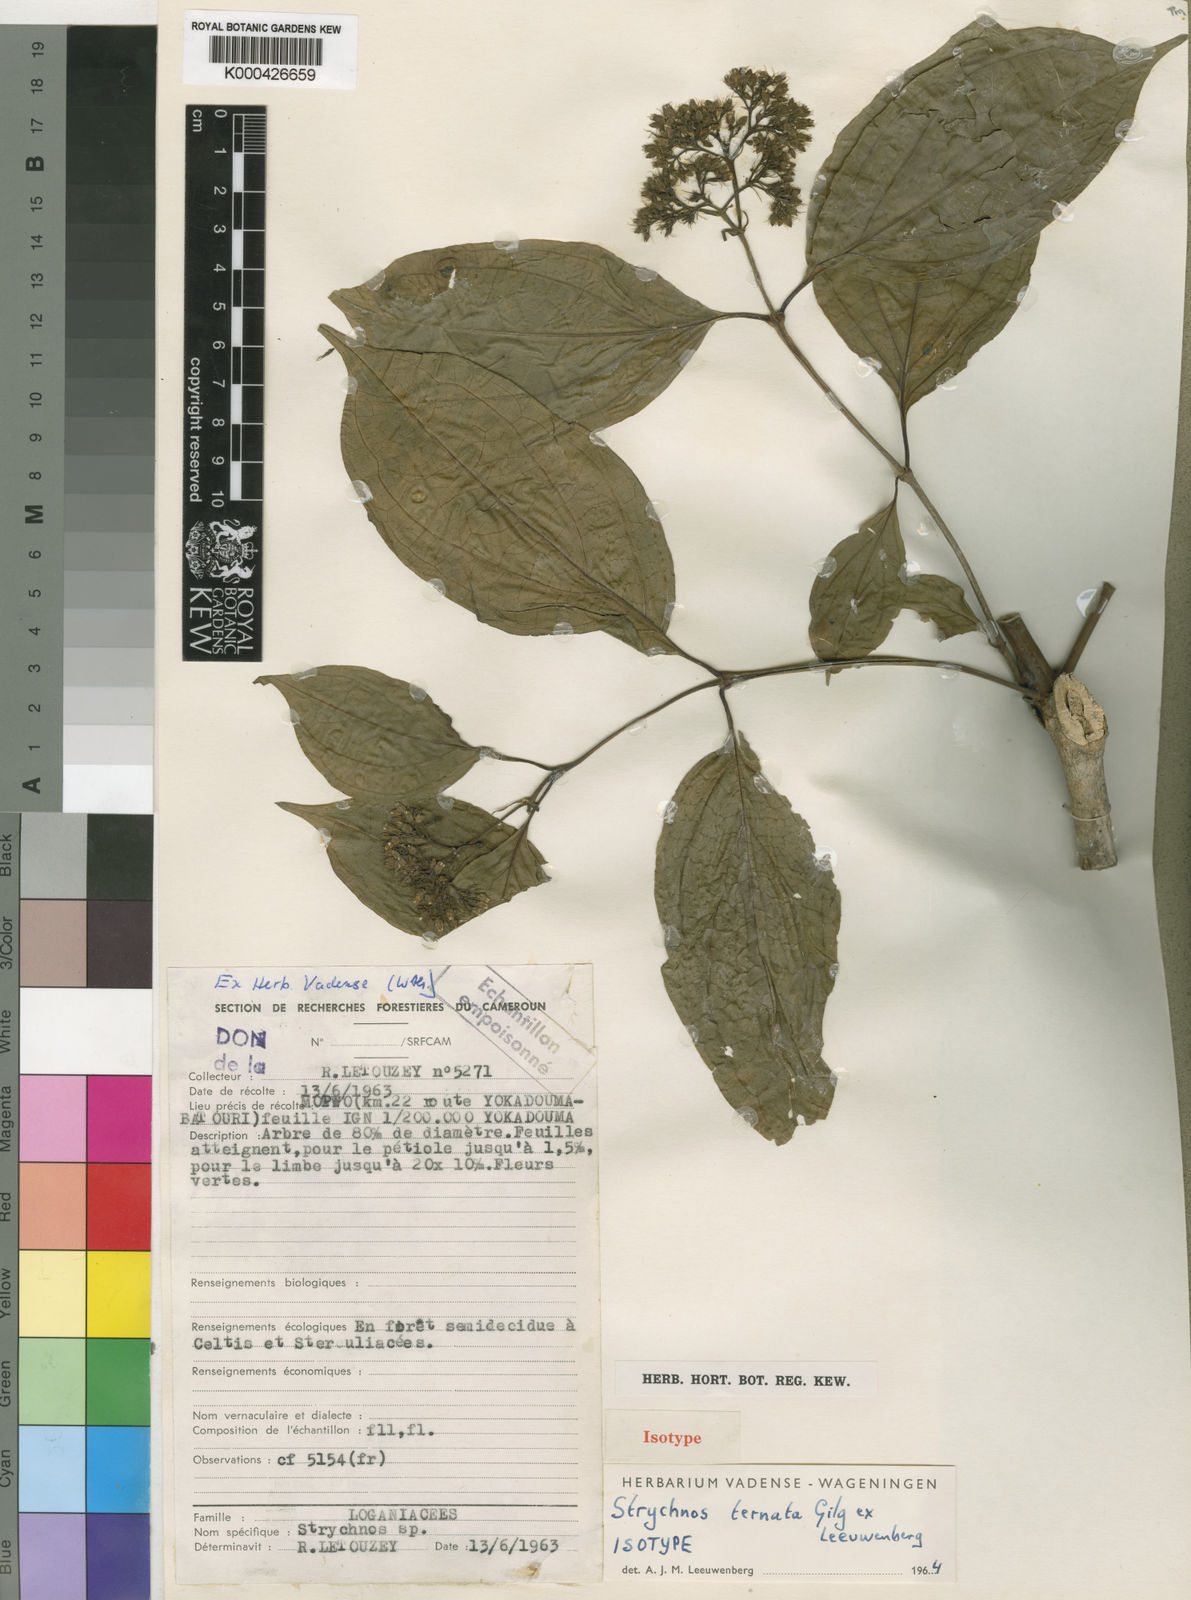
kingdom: Plantae
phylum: Tracheophyta
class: Magnoliopsida
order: Gentianales
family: Loganiaceae
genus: Strychnos
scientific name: Strychnos ternata
